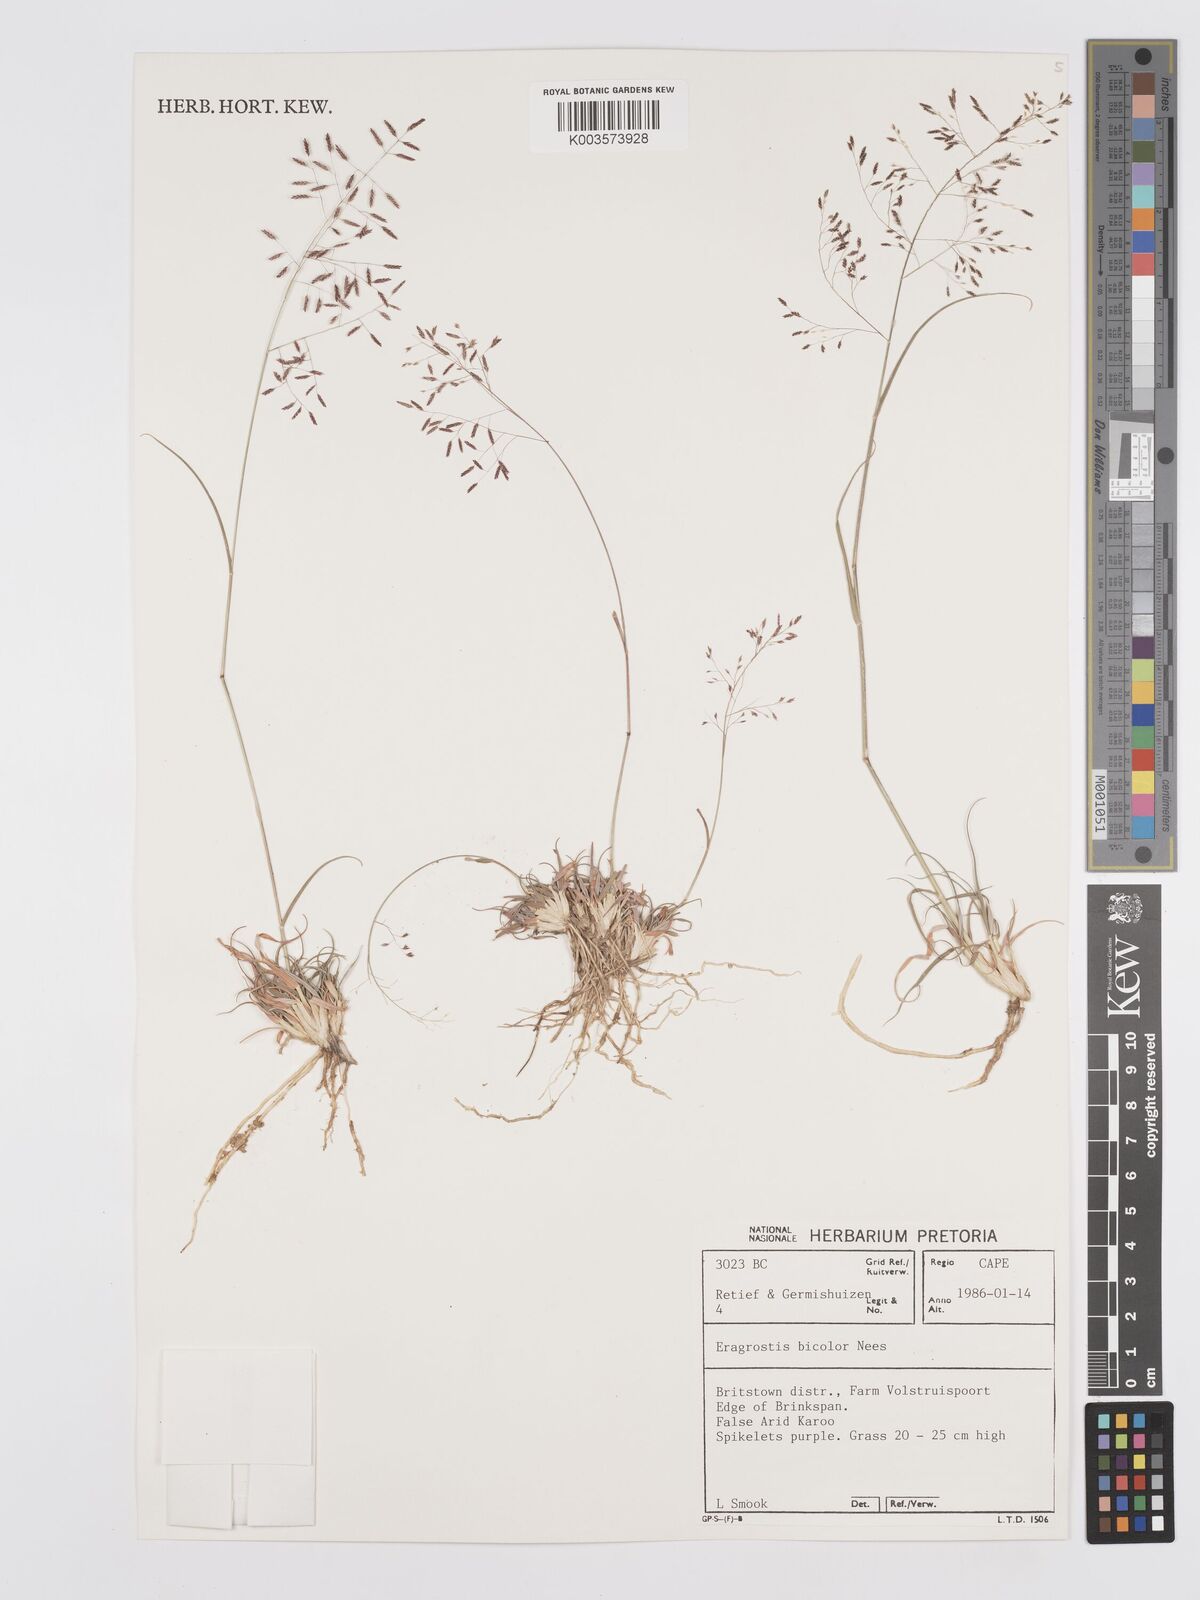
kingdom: Plantae
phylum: Tracheophyta
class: Liliopsida
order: Poales
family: Poaceae
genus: Eragrostis
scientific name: Eragrostis
